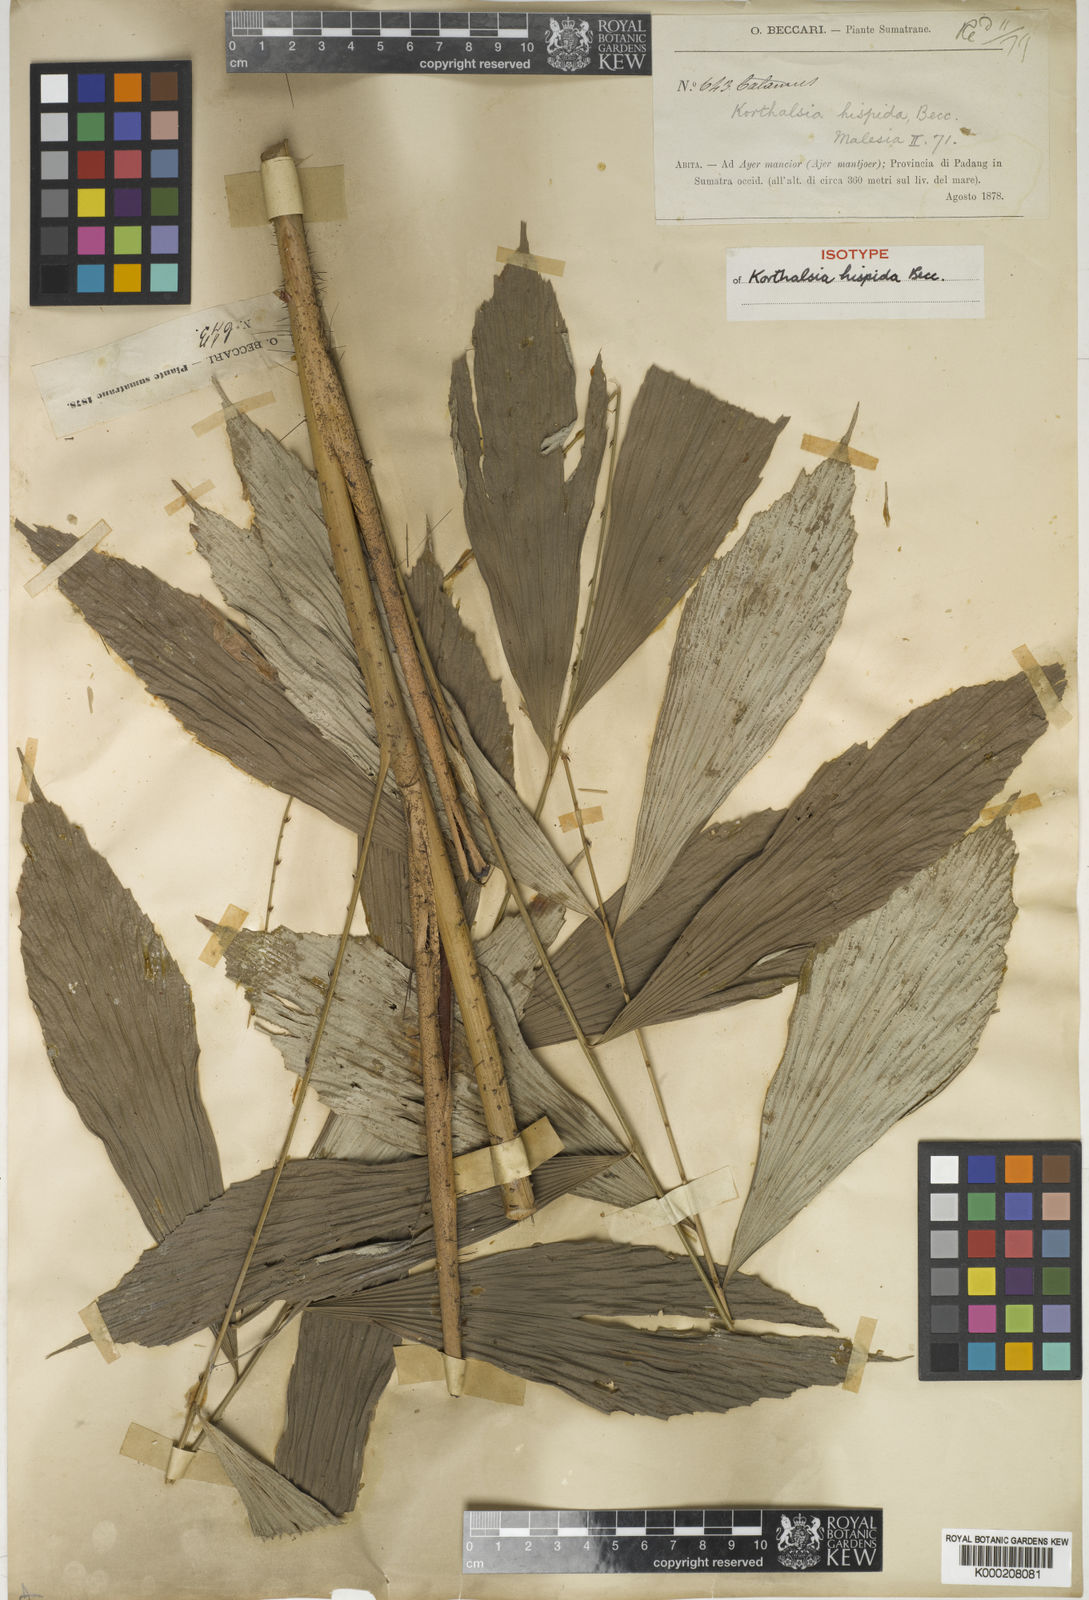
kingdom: Plantae
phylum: Tracheophyta
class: Liliopsida
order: Arecales
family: Arecaceae
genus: Korthalsia
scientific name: Korthalsia hispida
